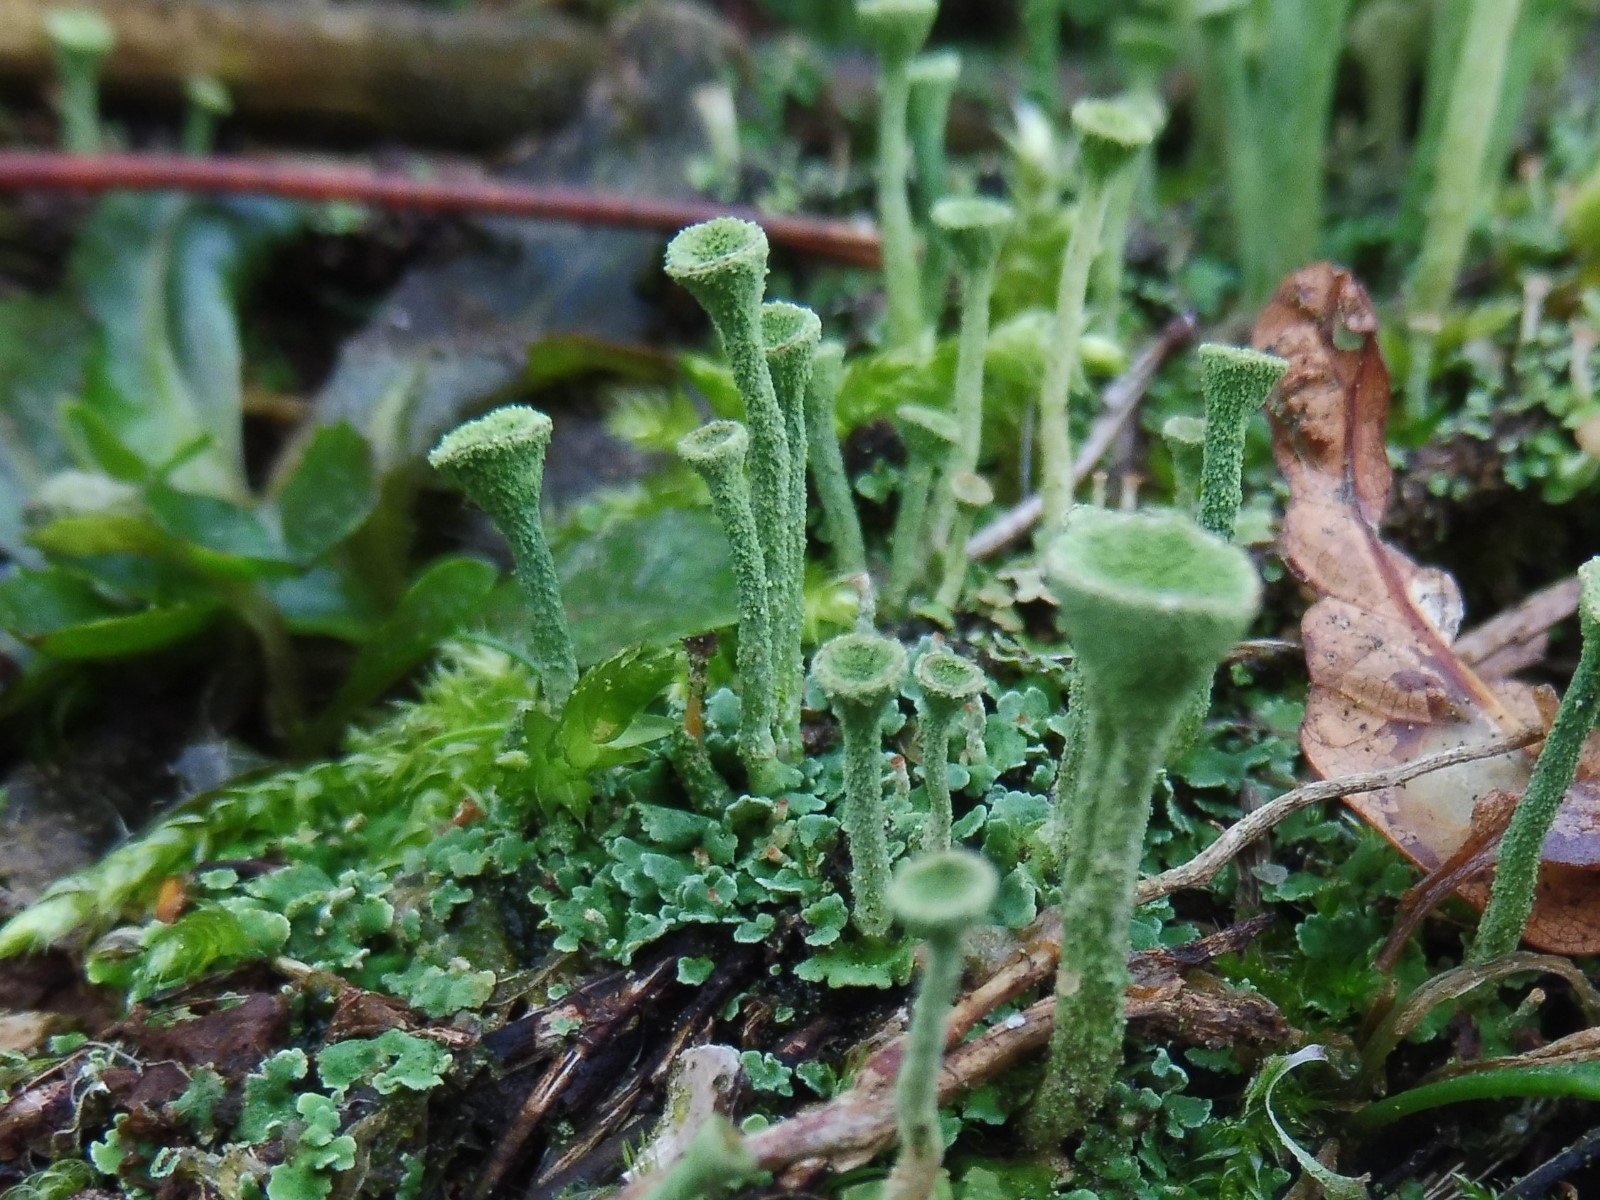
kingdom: Fungi
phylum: Ascomycota
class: Lecanoromycetes
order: Lecanorales
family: Cladoniaceae
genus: Cladonia
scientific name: Cladonia fimbriata
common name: bleggrøn bægerlav
